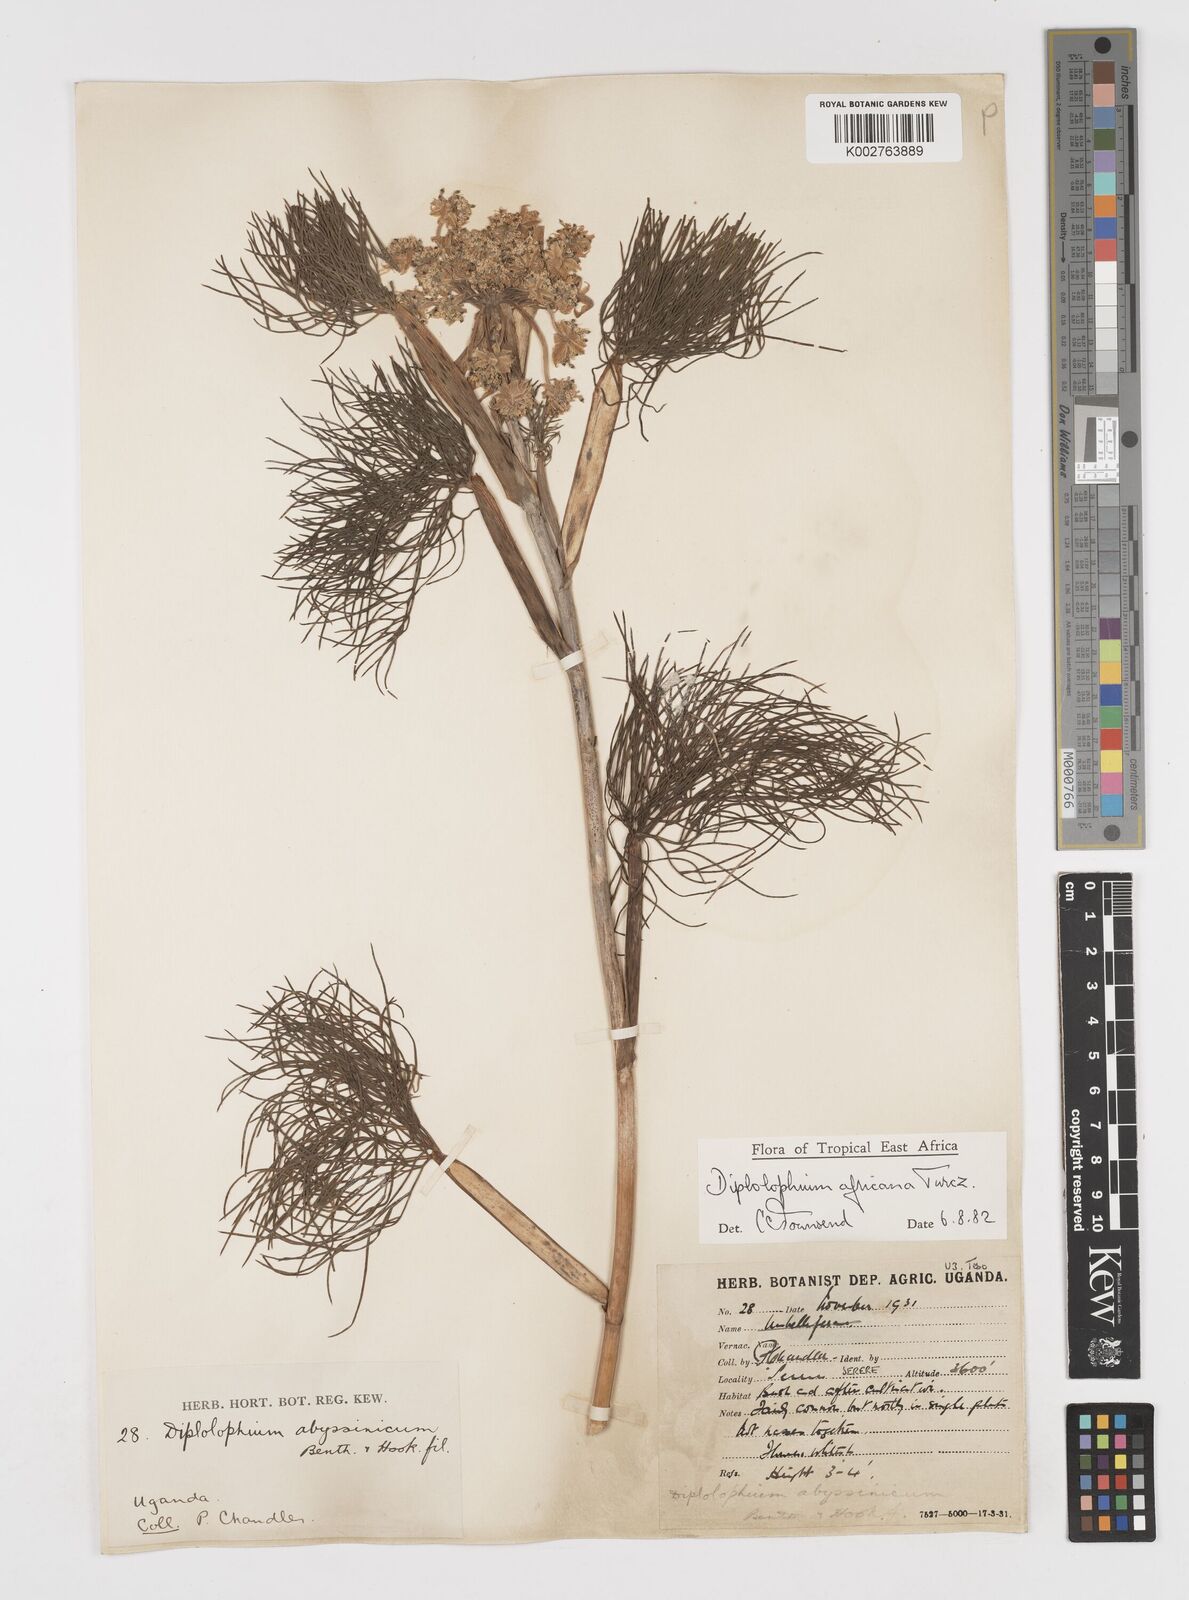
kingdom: Plantae
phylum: Tracheophyta
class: Magnoliopsida
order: Apiales
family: Apiaceae
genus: Diplolophium
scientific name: Diplolophium africanum
